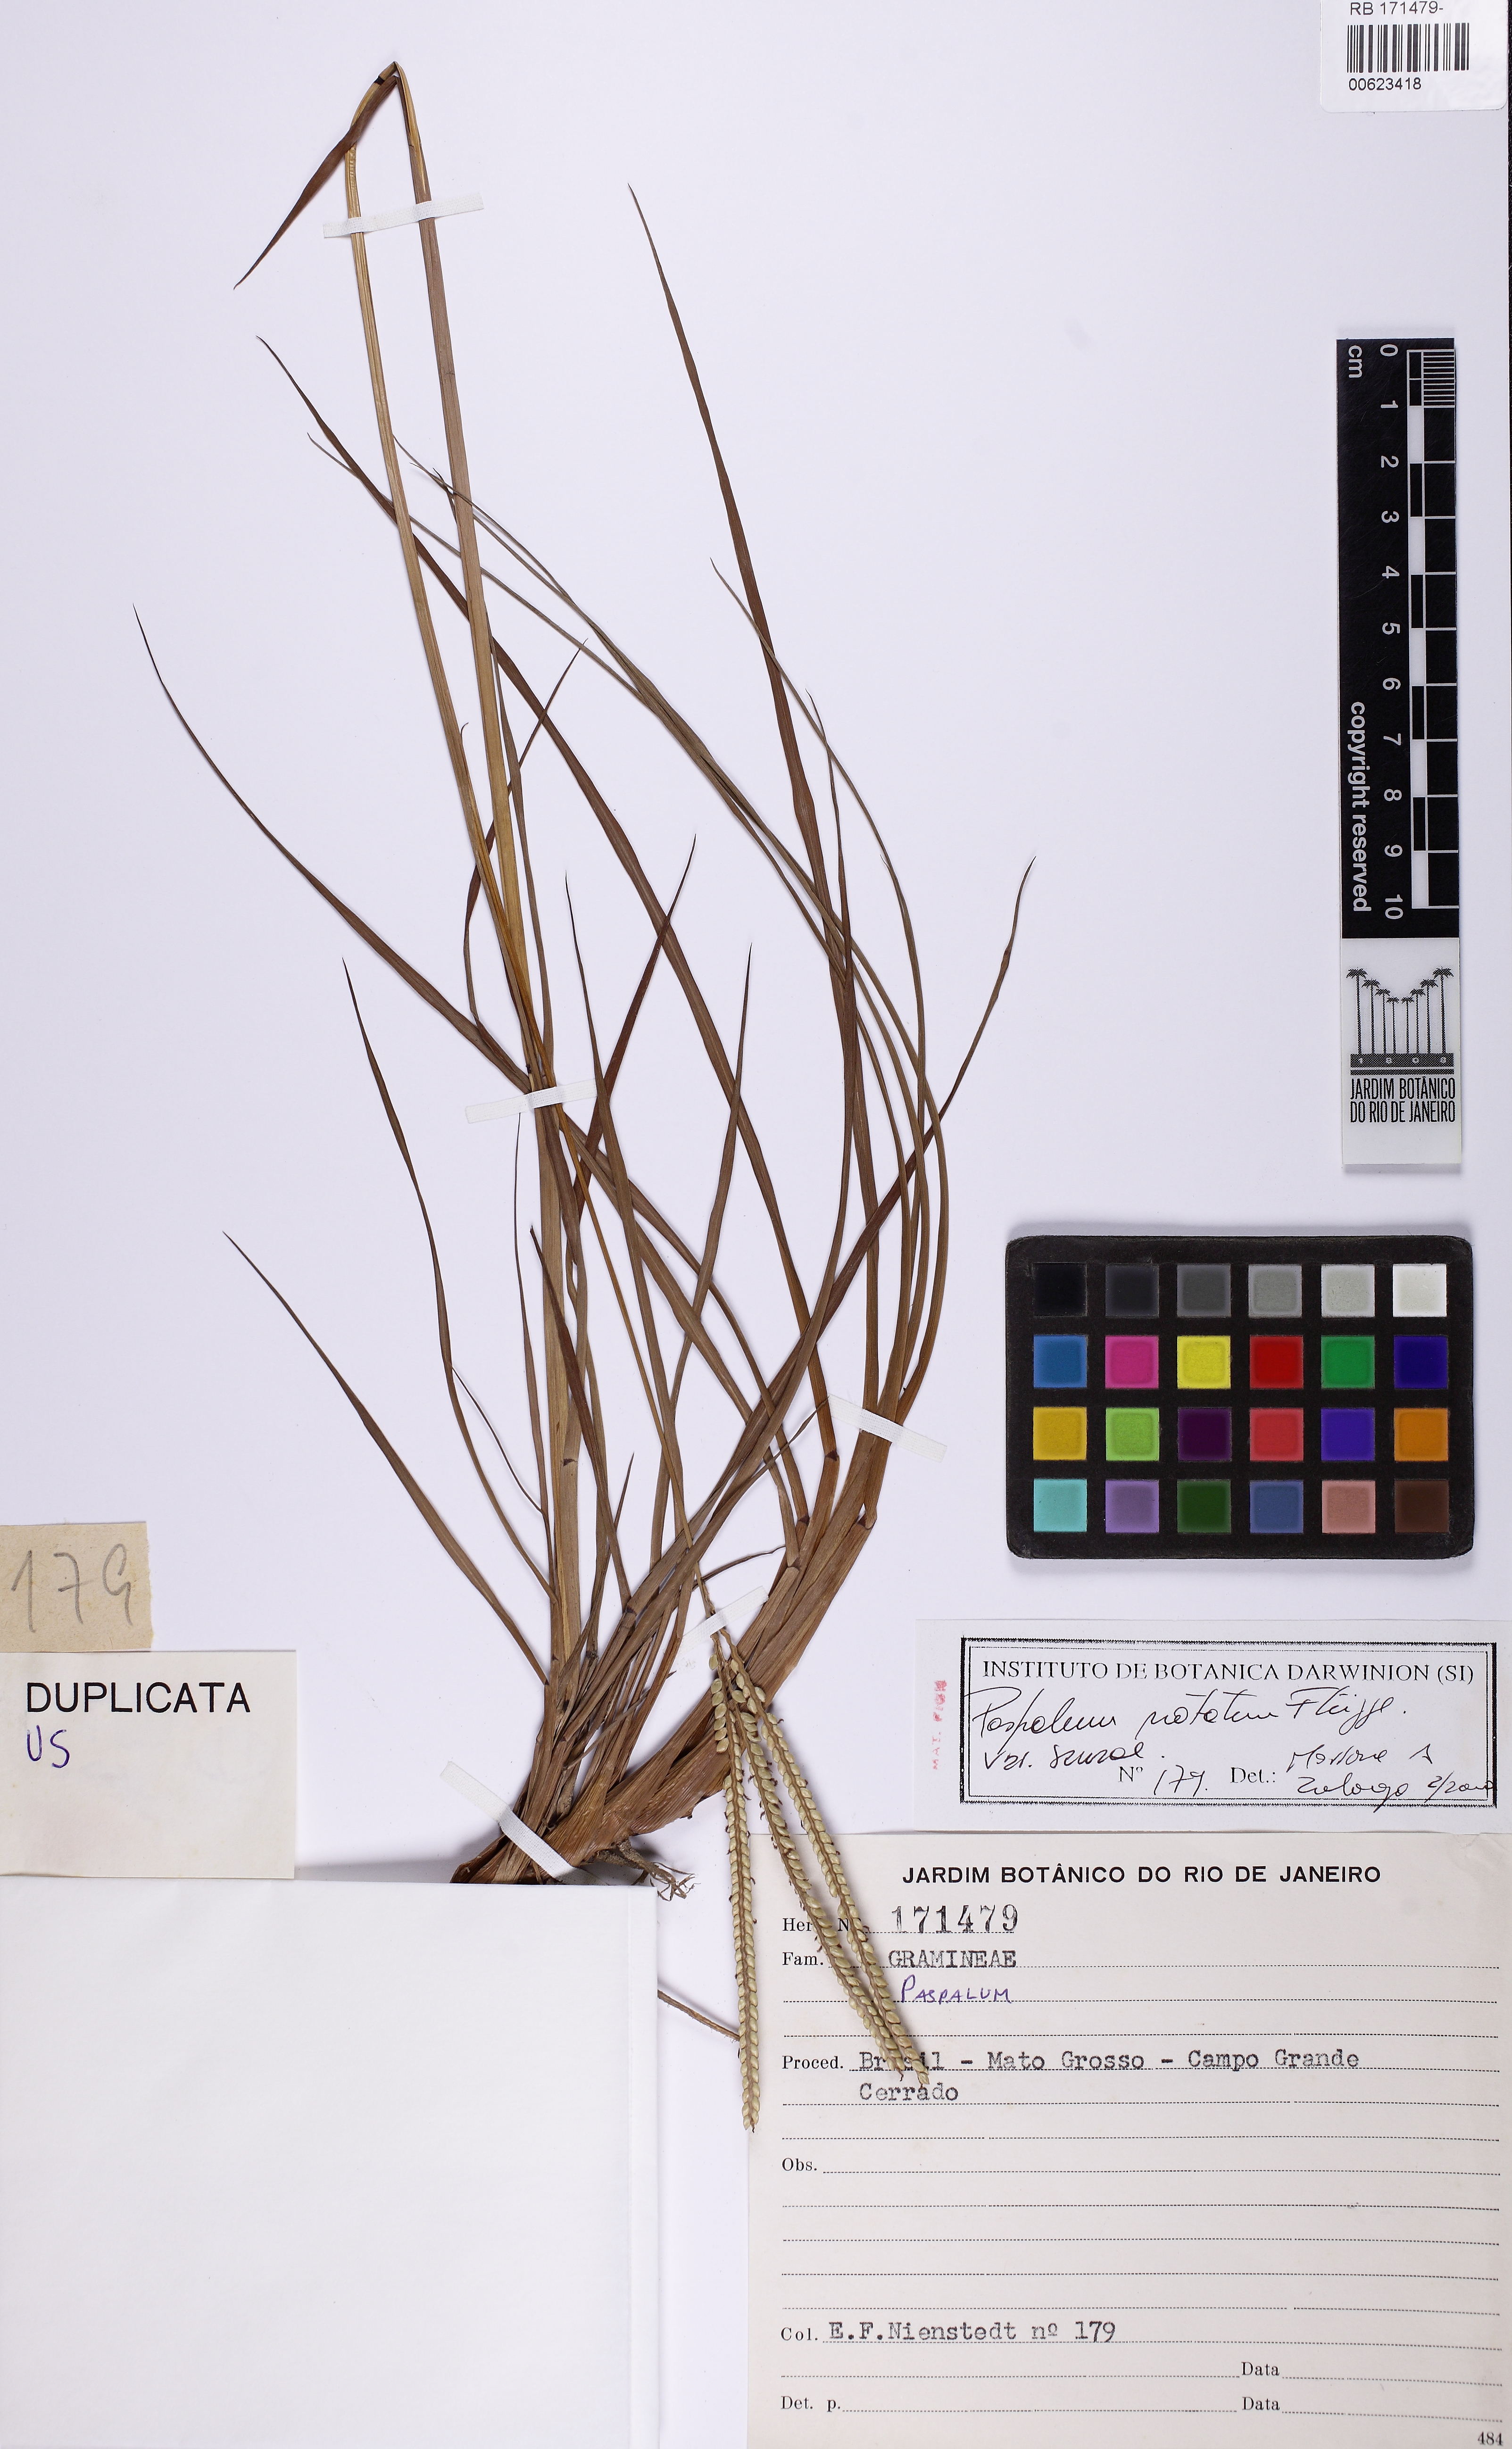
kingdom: Plantae
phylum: Tracheophyta
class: Liliopsida
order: Poales
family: Poaceae
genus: Paspalum
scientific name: Paspalum notatum
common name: Bahiagrass
